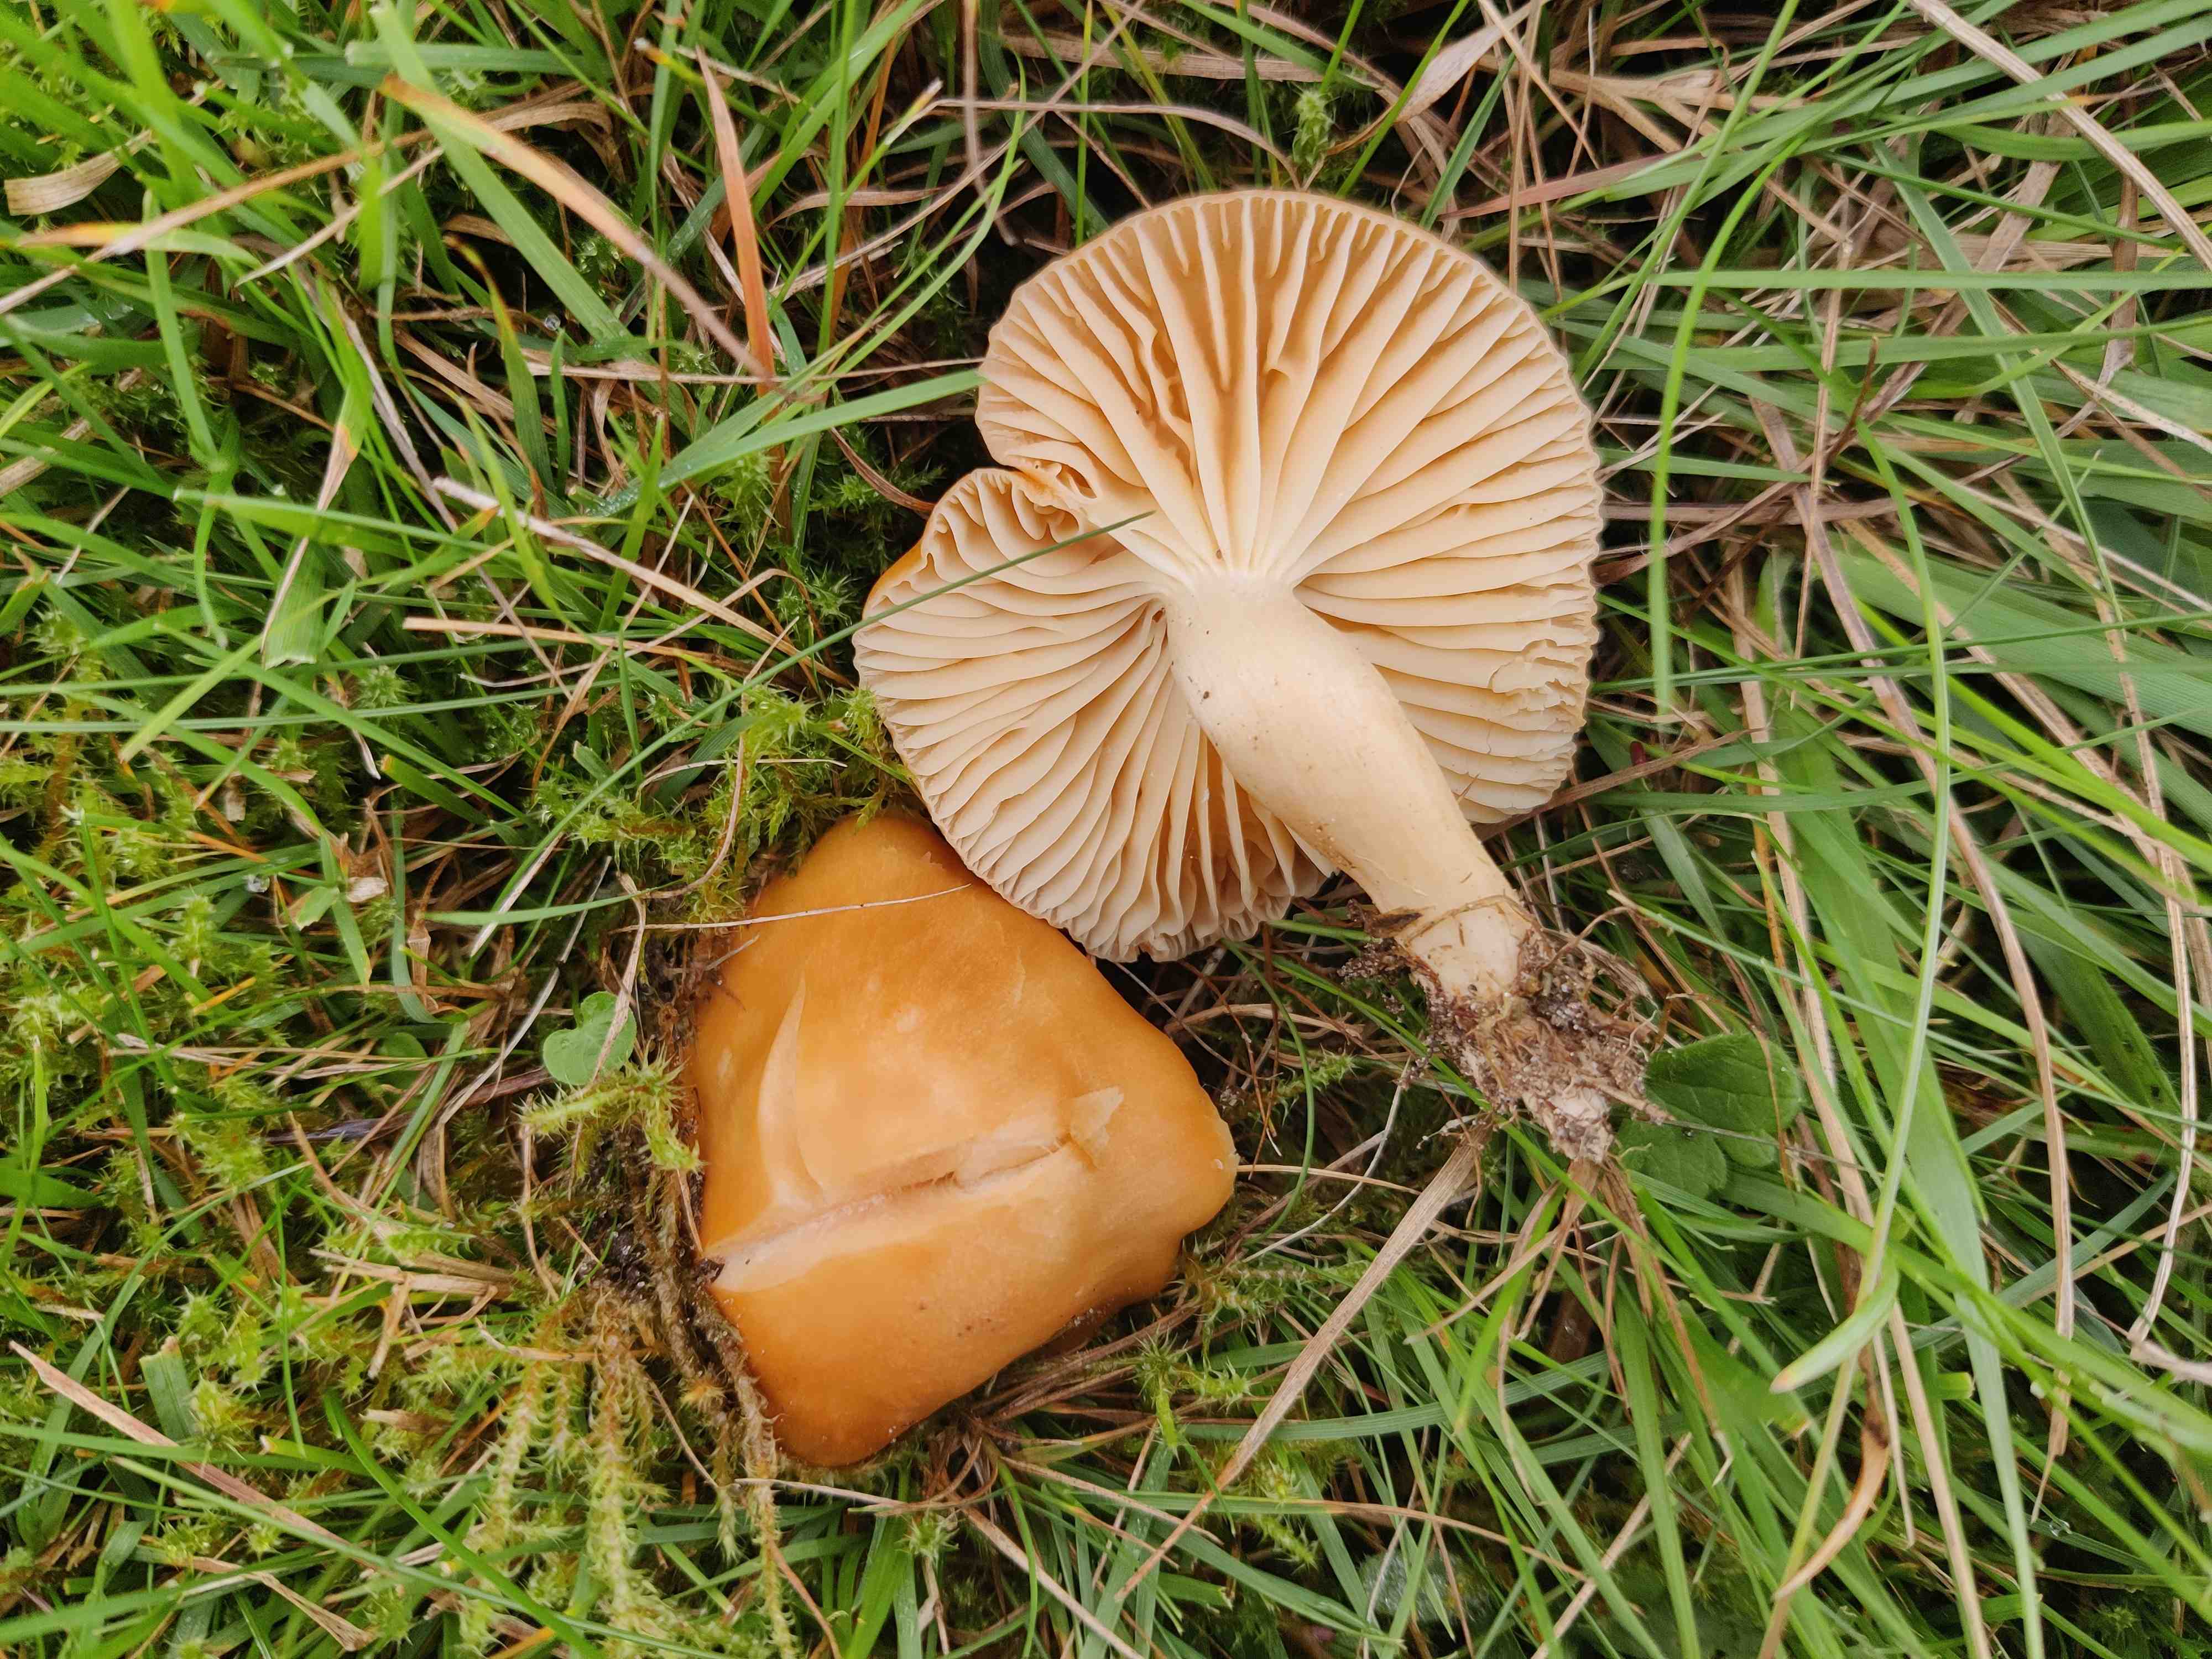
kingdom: Fungi
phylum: Basidiomycota
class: Agaricomycetes
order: Agaricales
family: Hygrophoraceae
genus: Cuphophyllus
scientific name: Cuphophyllus pratensis
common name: eng-vokshat
